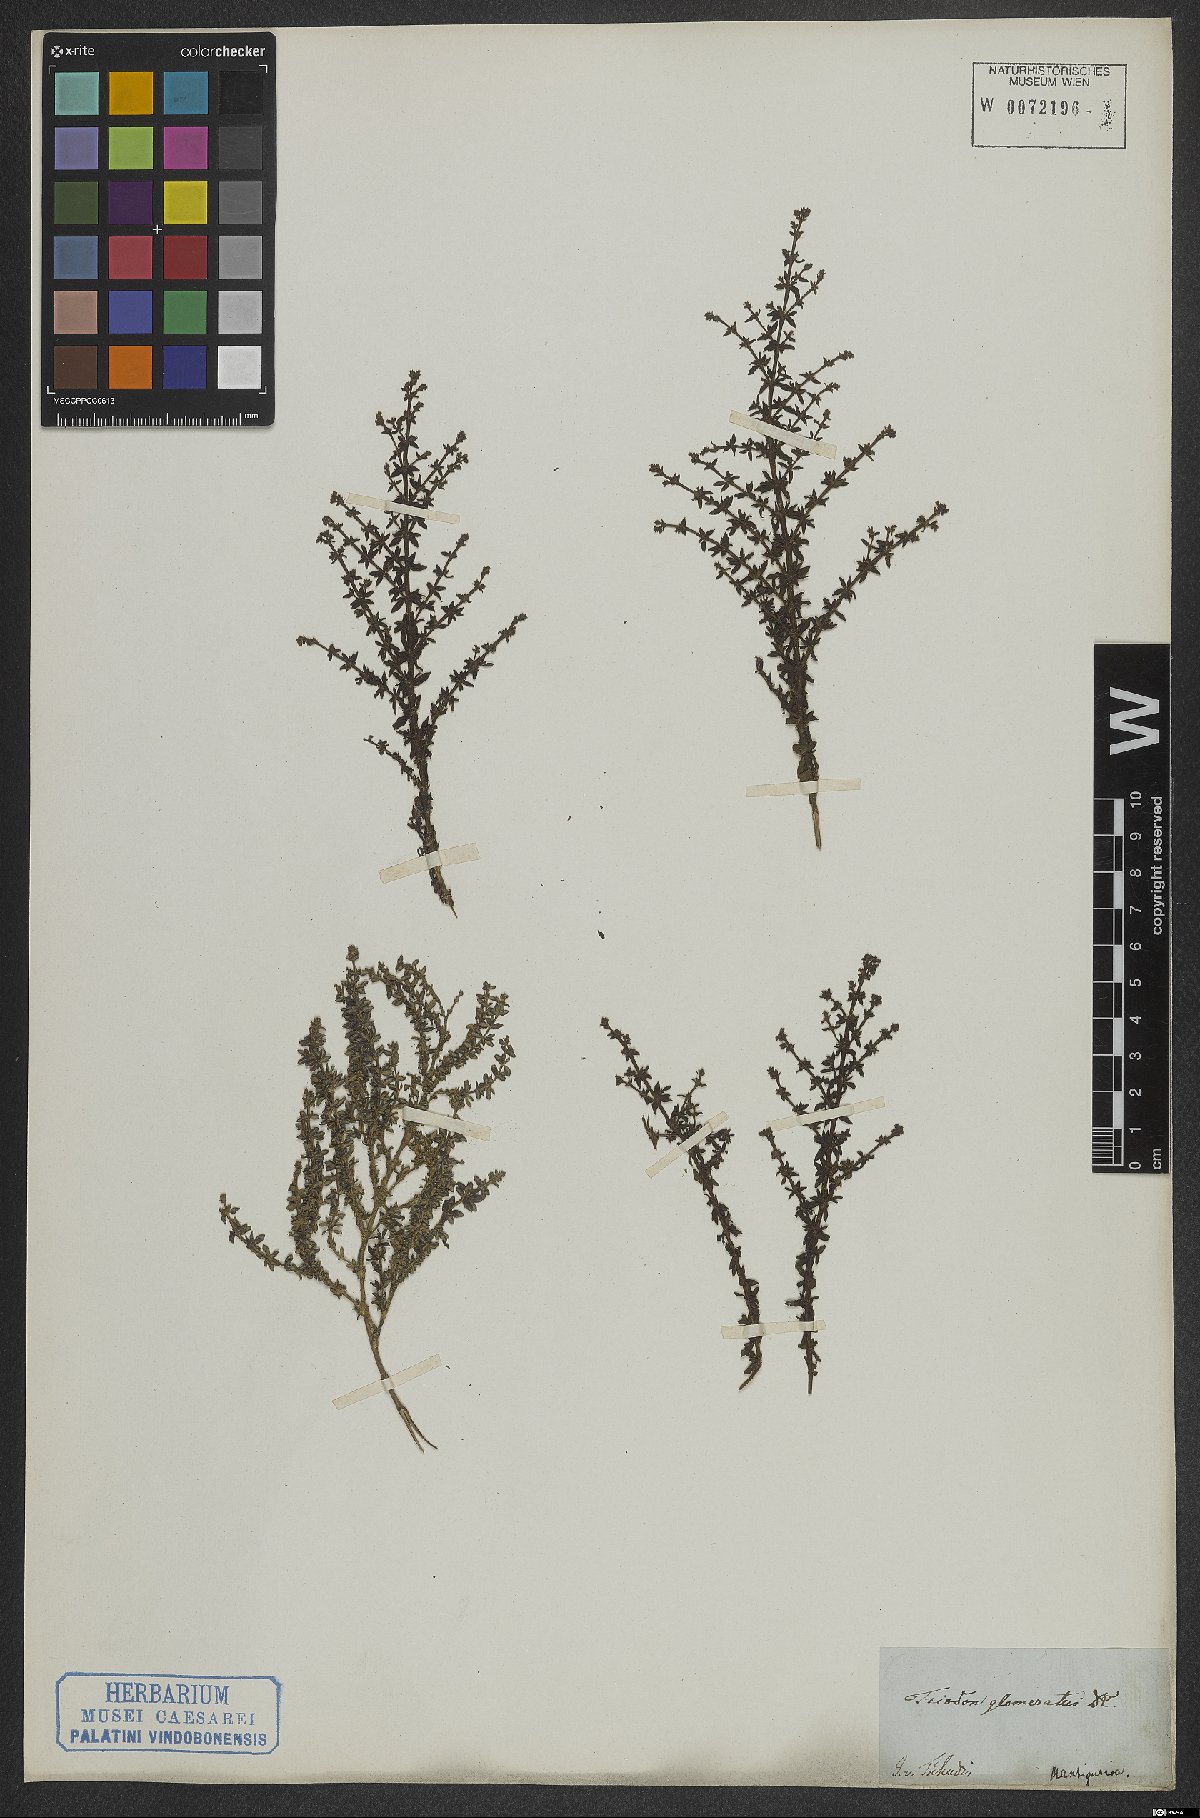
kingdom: Plantae
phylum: Tracheophyta
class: Magnoliopsida
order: Gentianales
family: Rubiaceae
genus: Galianthe
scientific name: Galianthe brasiliensis
